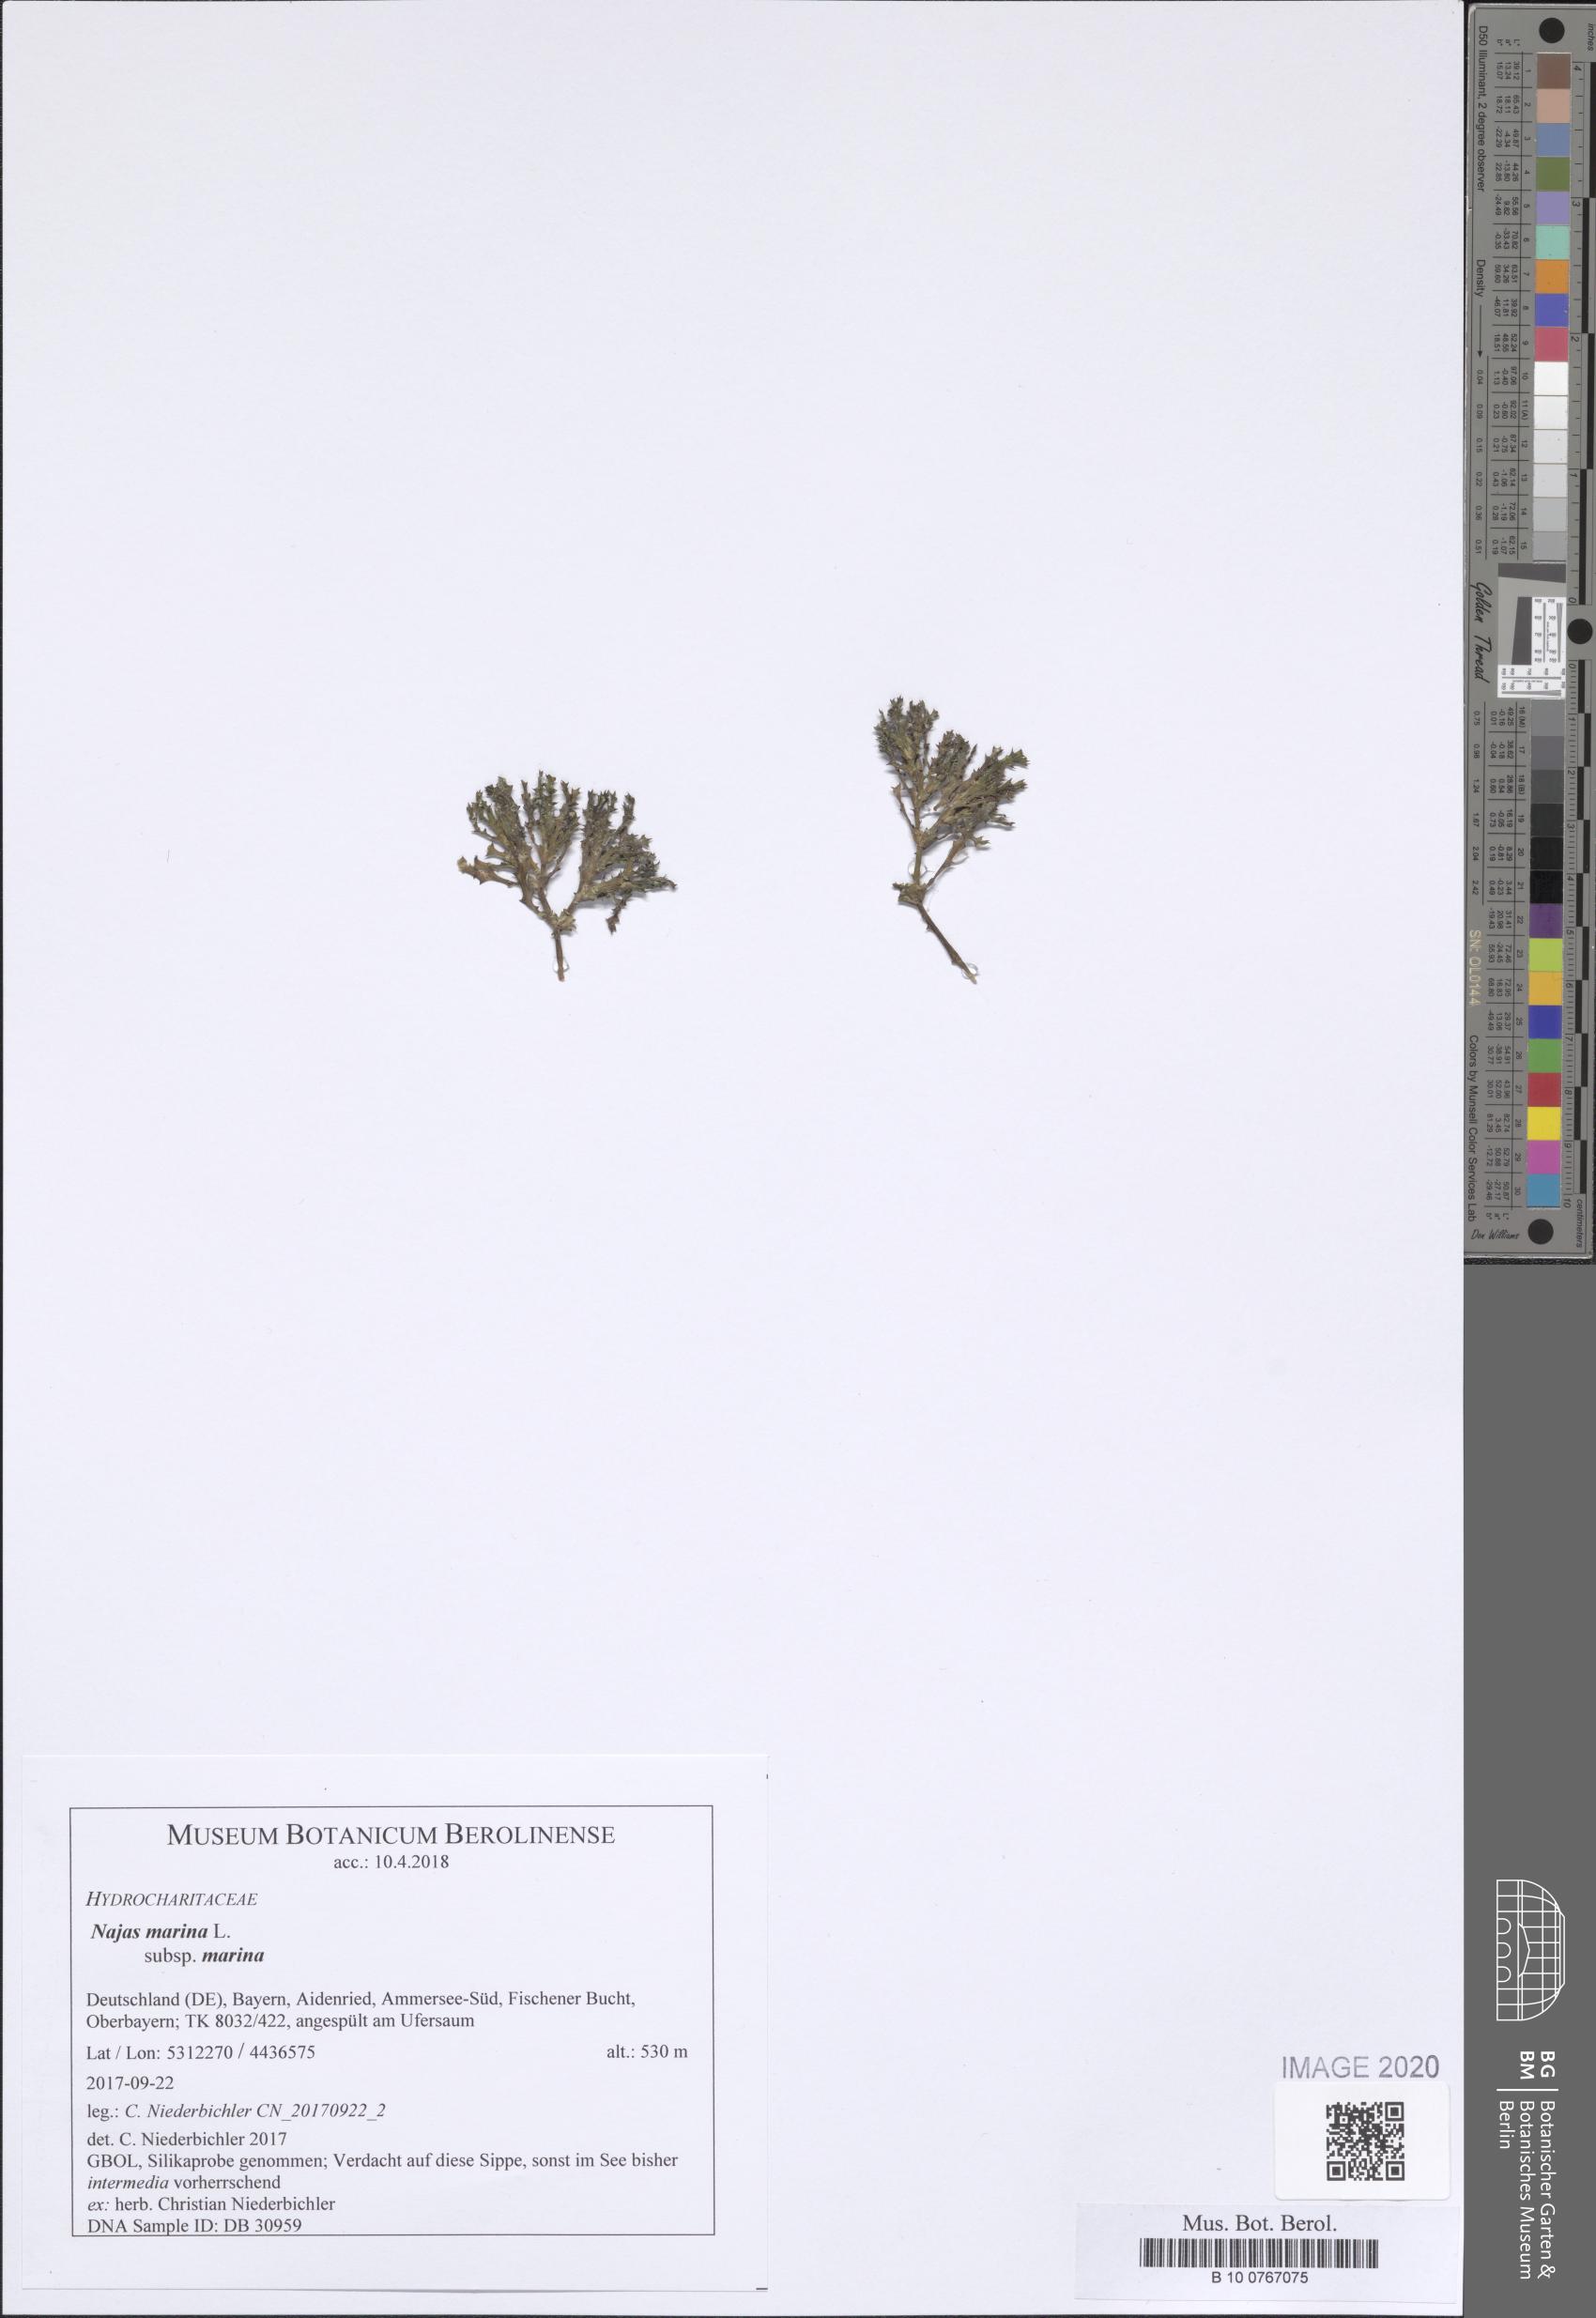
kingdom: Plantae
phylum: Tracheophyta
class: Liliopsida
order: Alismatales
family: Hydrocharitaceae
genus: Najas
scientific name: Najas marina
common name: Holly-leaved naiad
